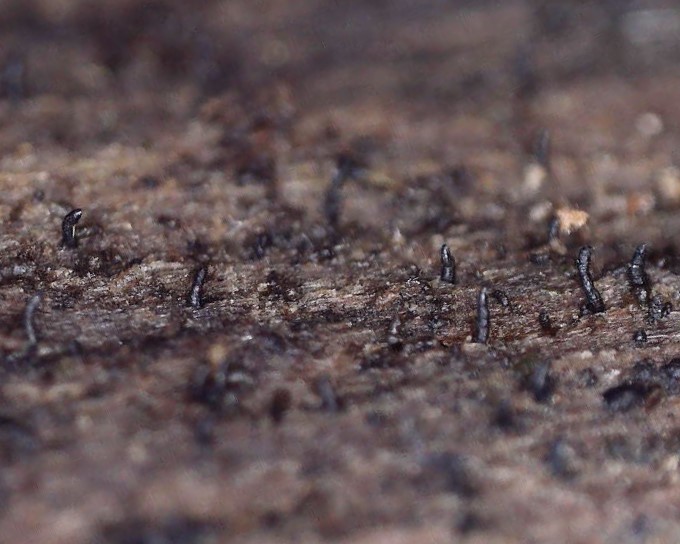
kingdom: Fungi
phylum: Ascomycota
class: Sordariomycetes
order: Calosphaeriales
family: Calosphaeriaceae
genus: Natantiella
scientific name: Natantiella ligneola
